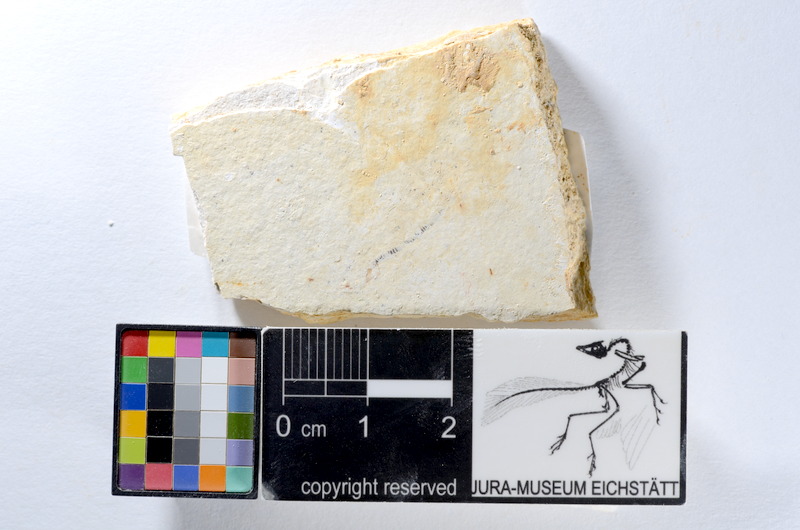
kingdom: Animalia
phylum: Chordata
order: Salmoniformes
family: Orthogonikleithridae
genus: Orthogonikleithrus
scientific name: Orthogonikleithrus hoelli
